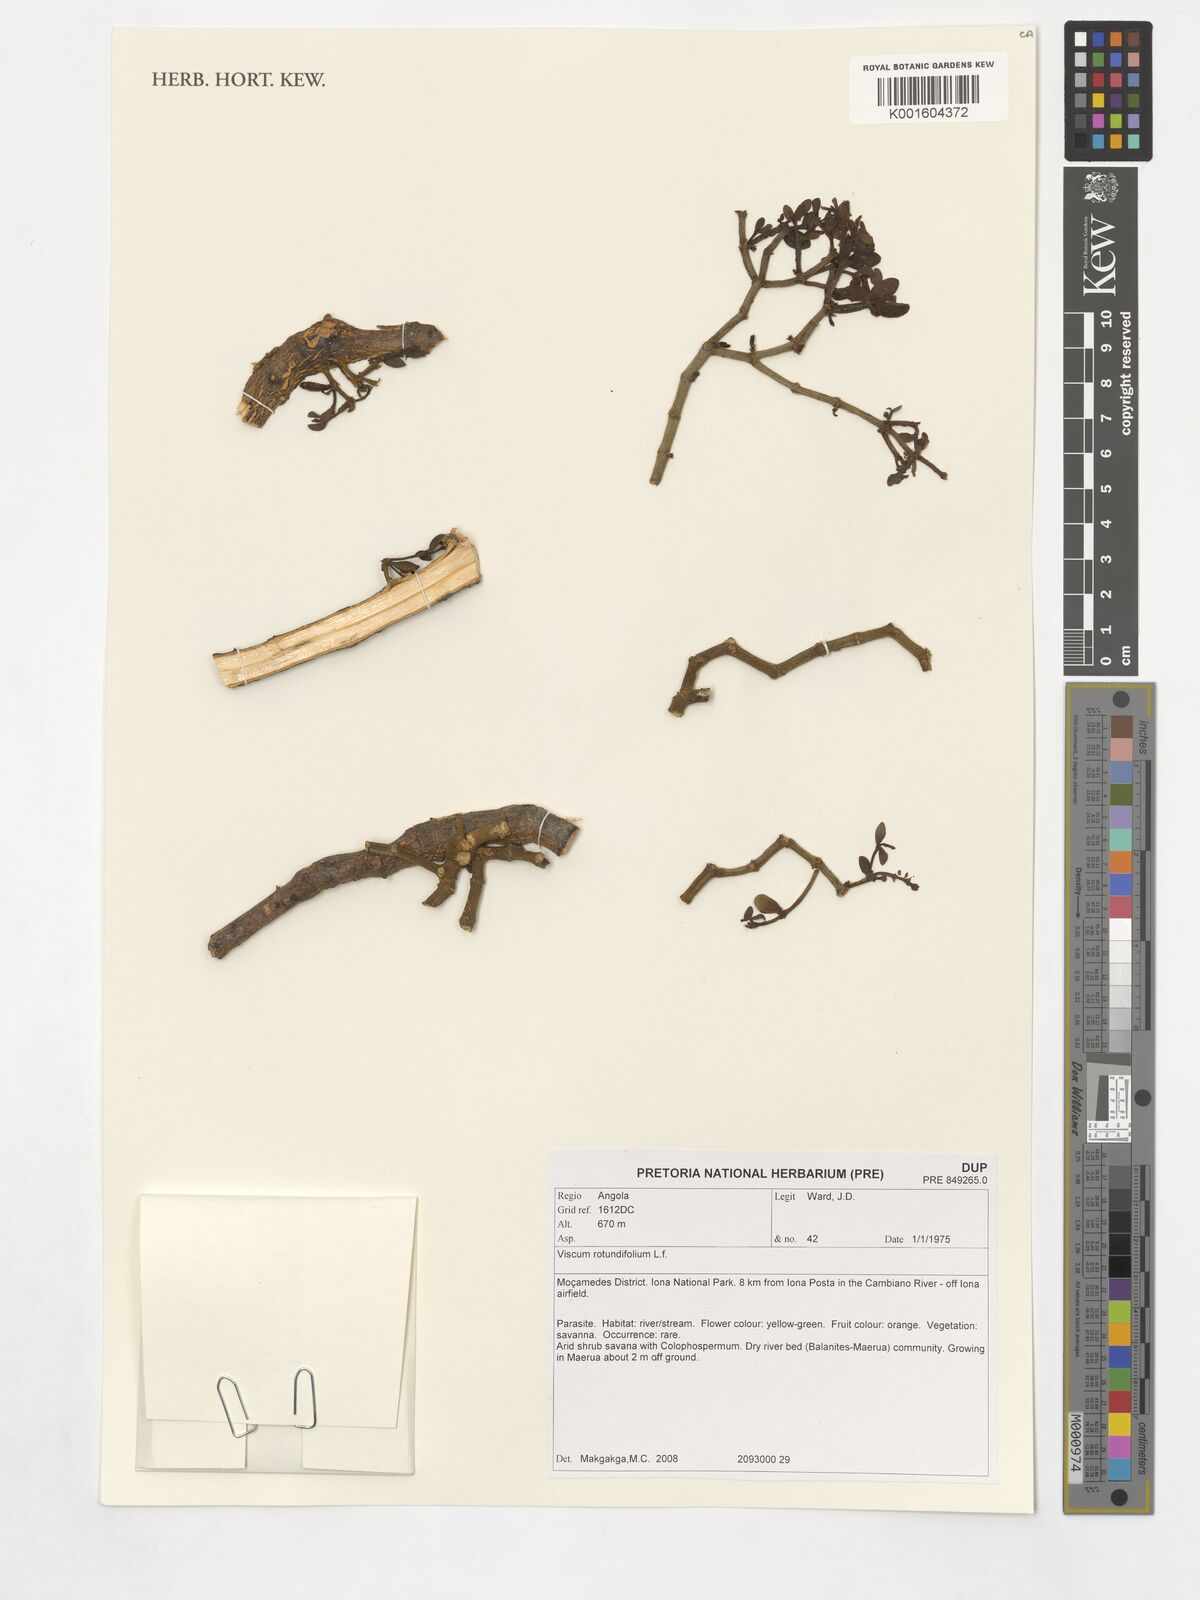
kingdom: Plantae
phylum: Tracheophyta
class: Magnoliopsida
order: Santalales
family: Viscaceae
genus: Viscum
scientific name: Viscum rotundifolium
